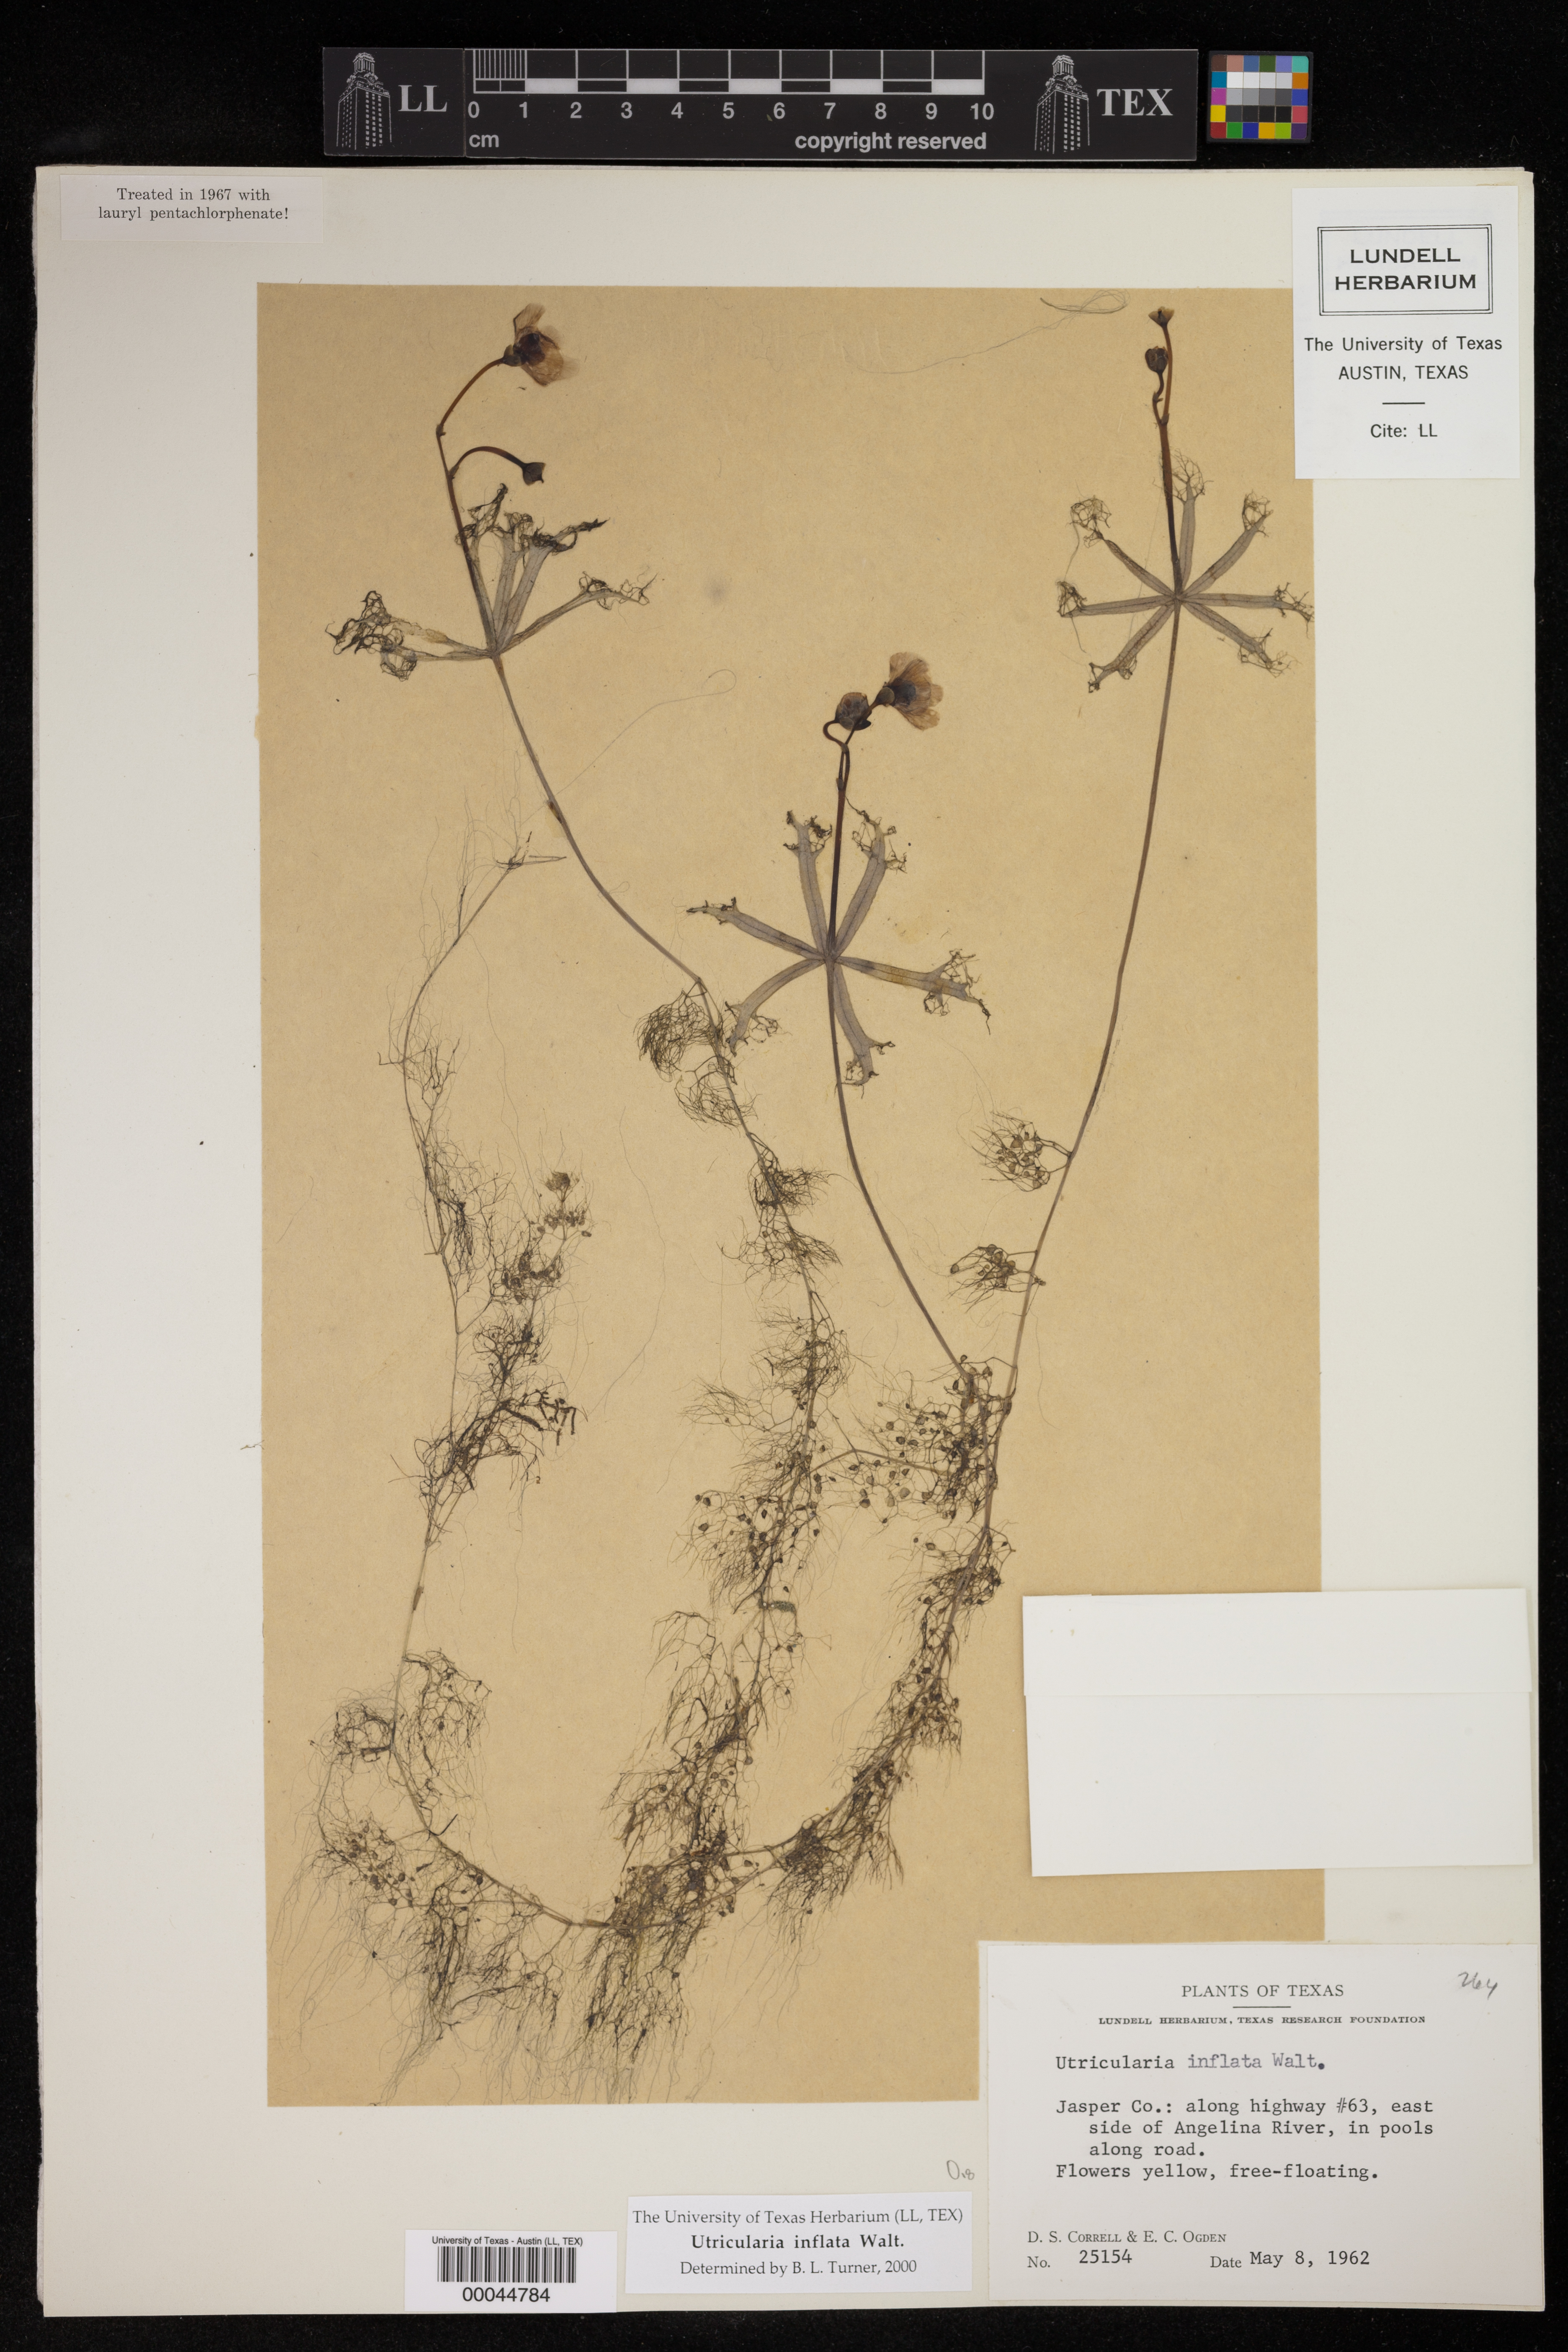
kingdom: Plantae
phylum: Tracheophyta
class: Magnoliopsida
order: Lamiales
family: Lentibulariaceae
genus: Utricularia
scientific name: Utricularia inflata
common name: Floating bladderwort
